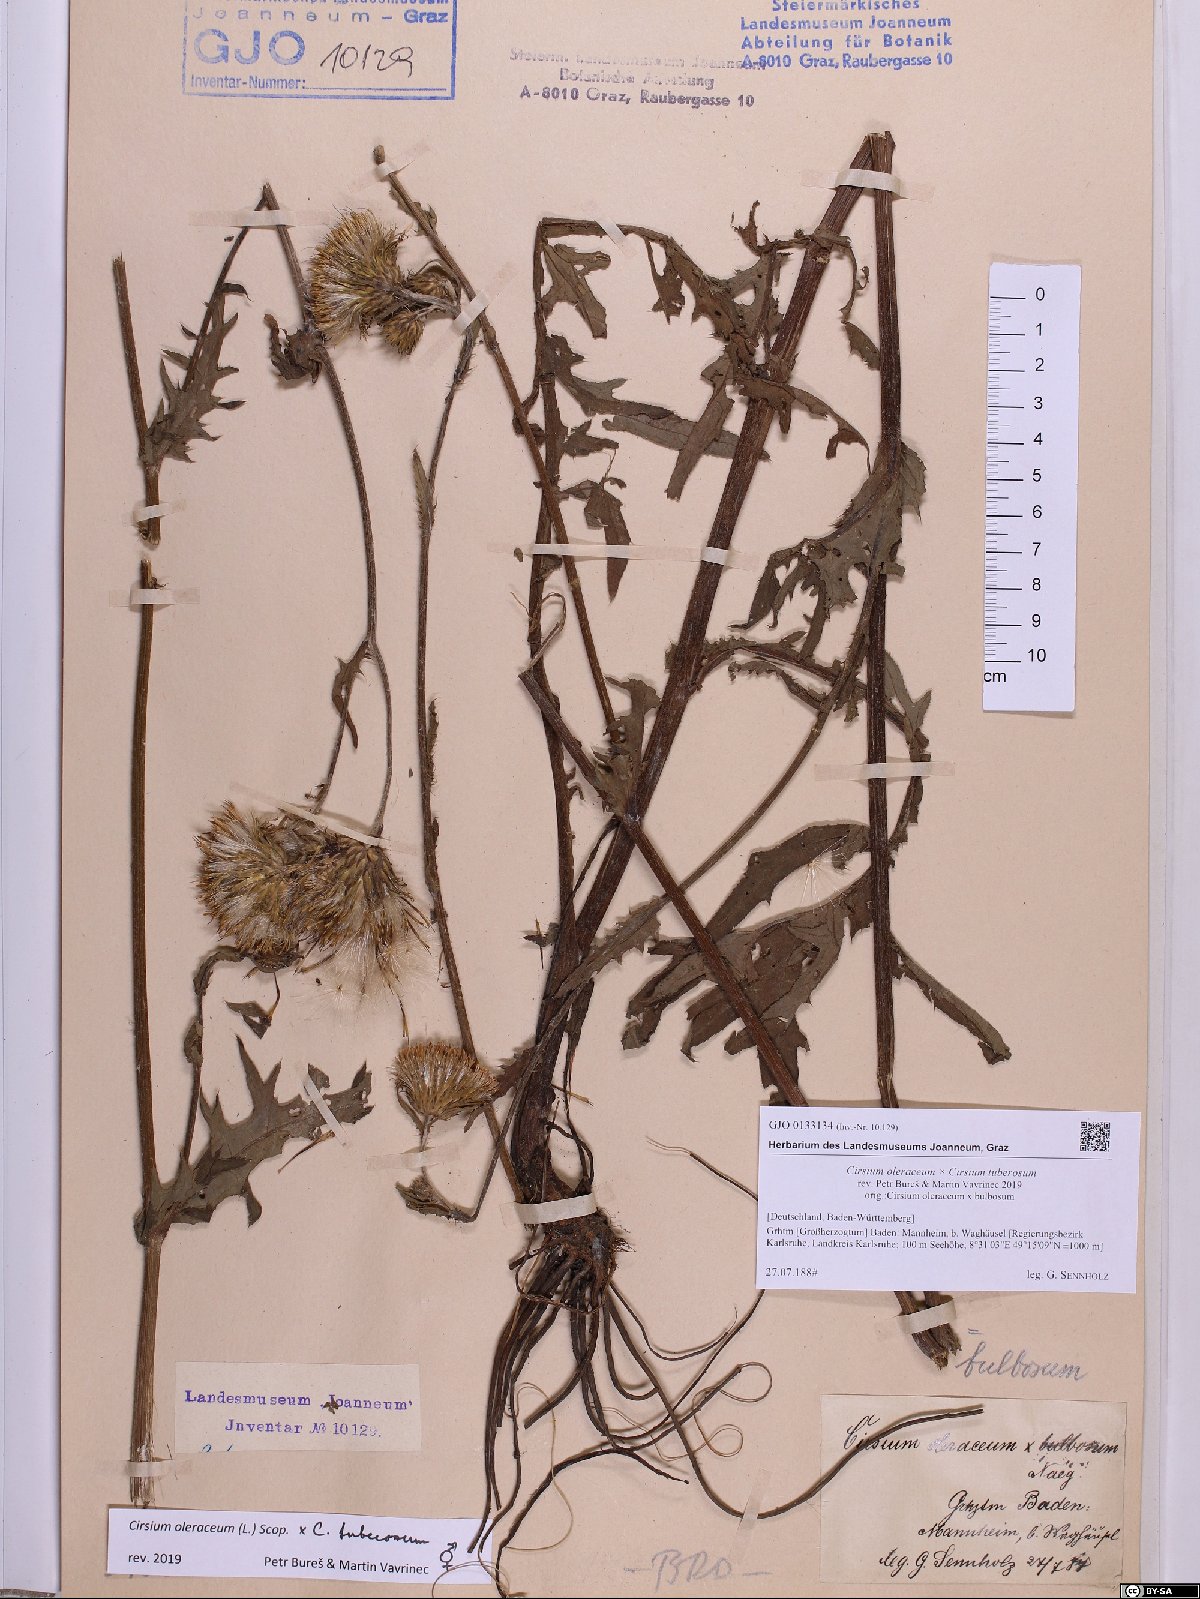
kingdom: Plantae
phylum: Tracheophyta
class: Magnoliopsida
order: Asterales
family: Asteraceae
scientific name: Asteraceae
